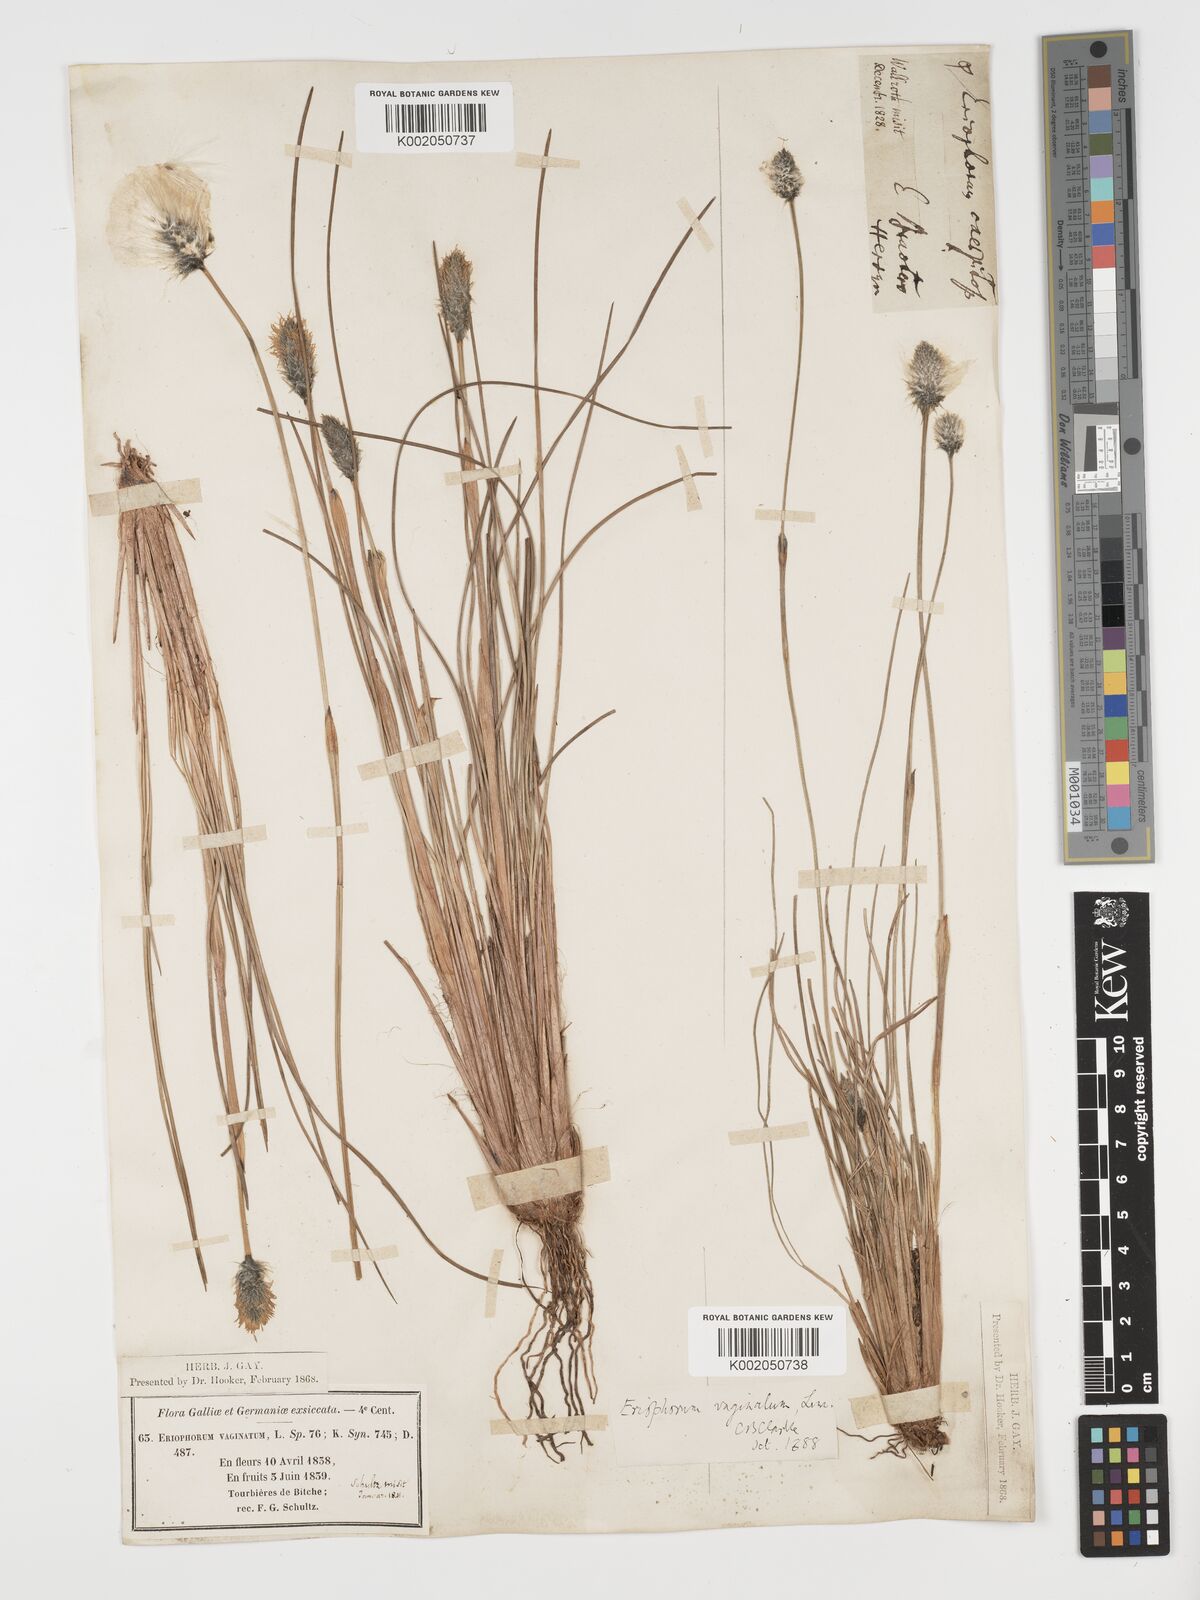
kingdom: Plantae
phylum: Tracheophyta
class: Liliopsida
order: Poales
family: Cyperaceae
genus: Eriophorum
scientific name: Eriophorum vaginatum
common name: Hare's-tail cottongrass
